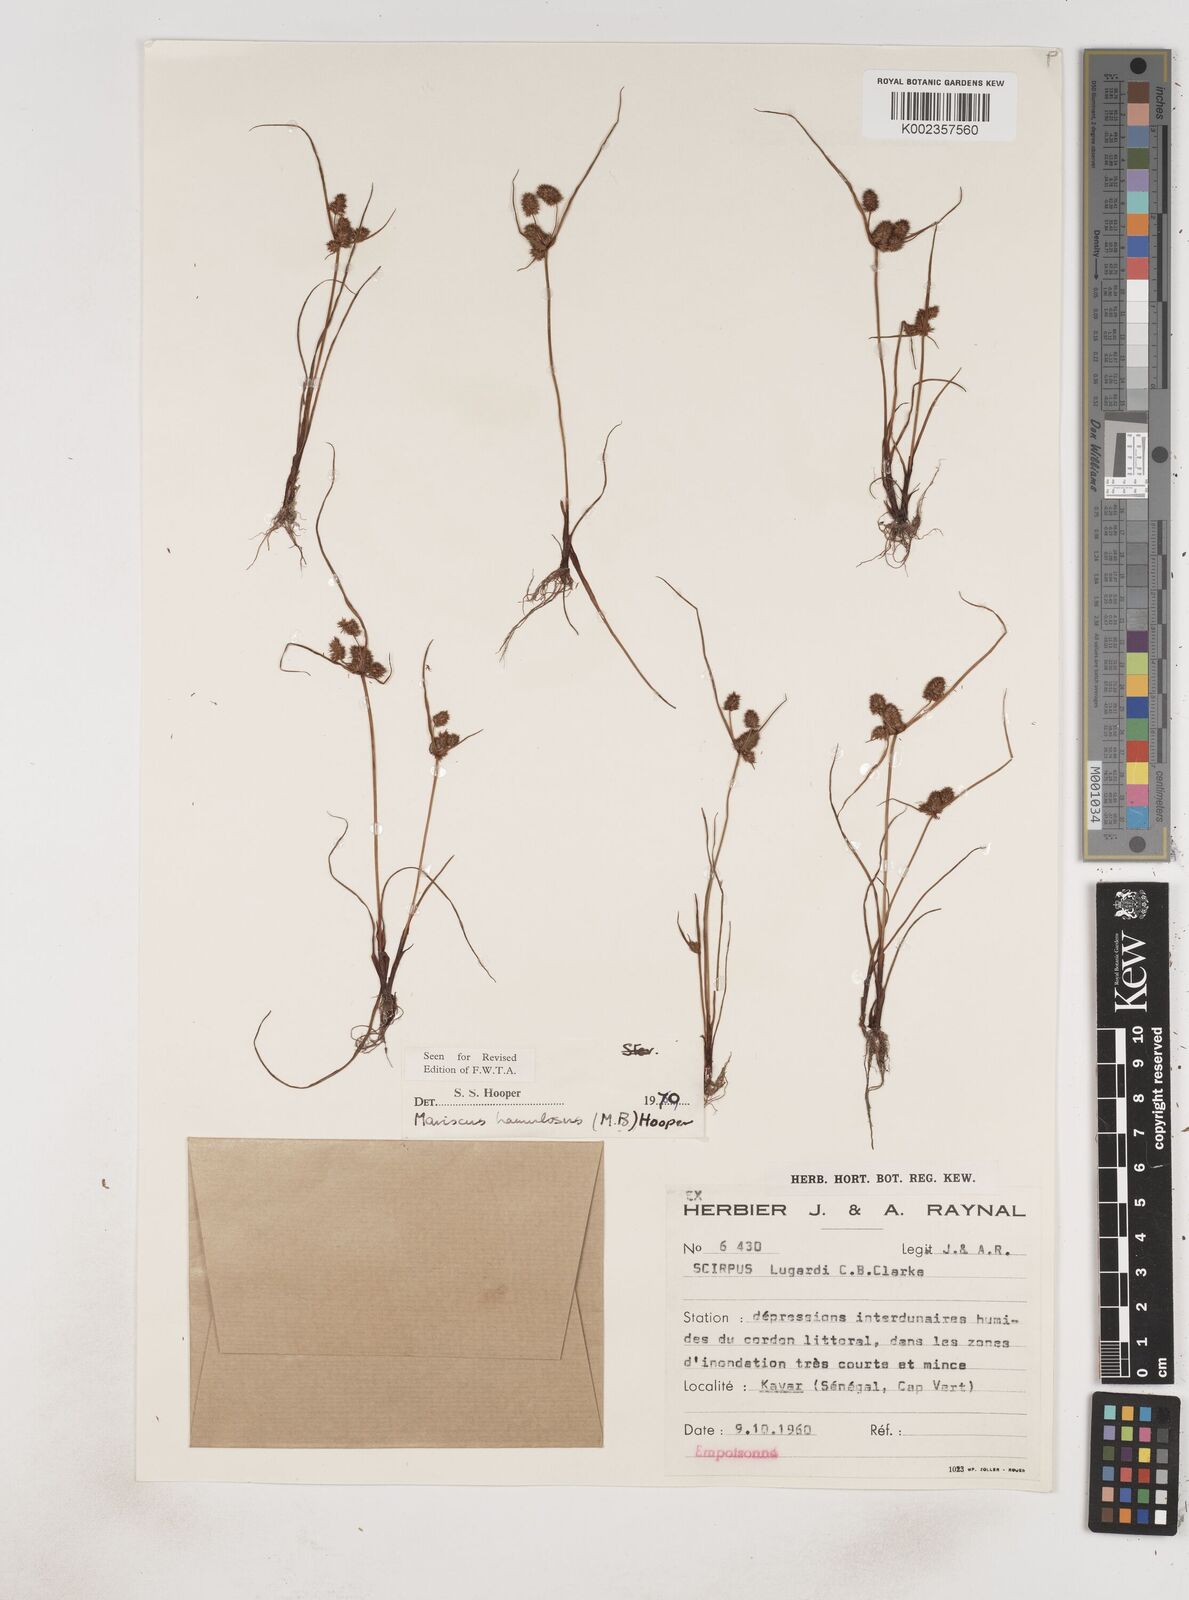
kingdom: Plantae
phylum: Tracheophyta
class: Liliopsida
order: Poales
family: Cyperaceae
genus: Cyperus
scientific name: Cyperus hamulosus
